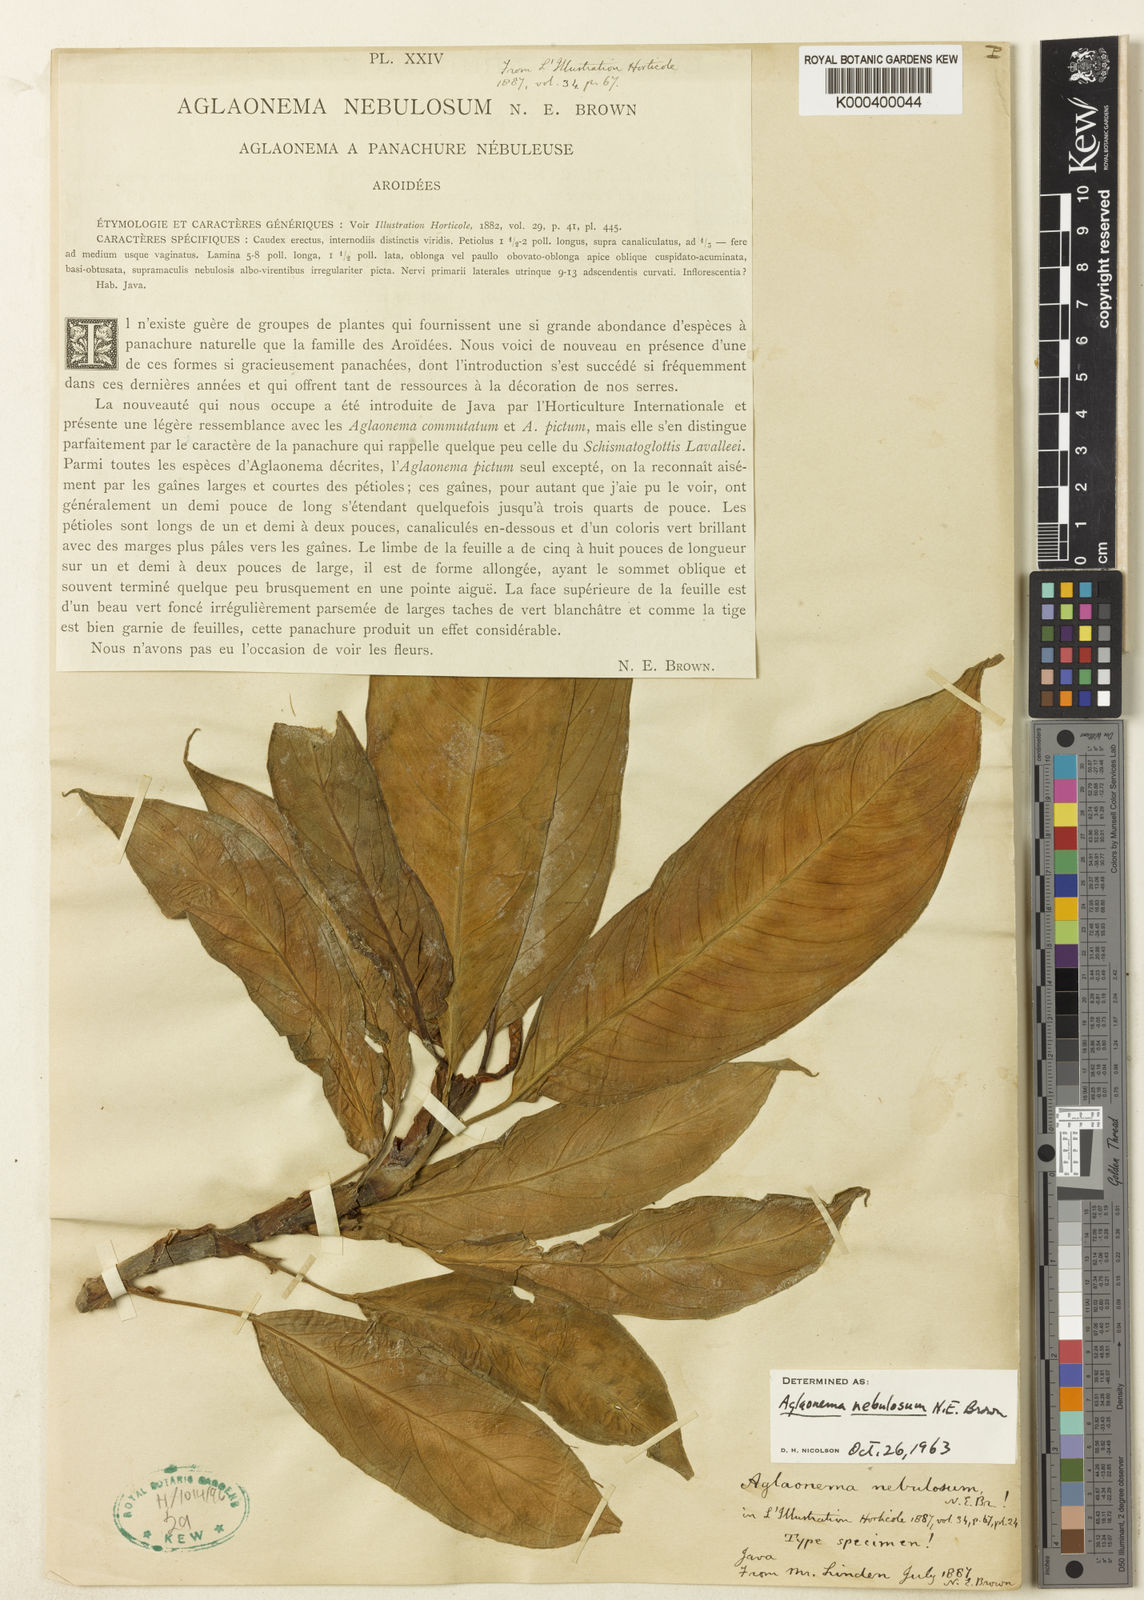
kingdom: Plantae
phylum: Tracheophyta
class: Liliopsida
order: Alismatales
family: Araceae
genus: Aglaonema
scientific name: Aglaonema nebulosum
